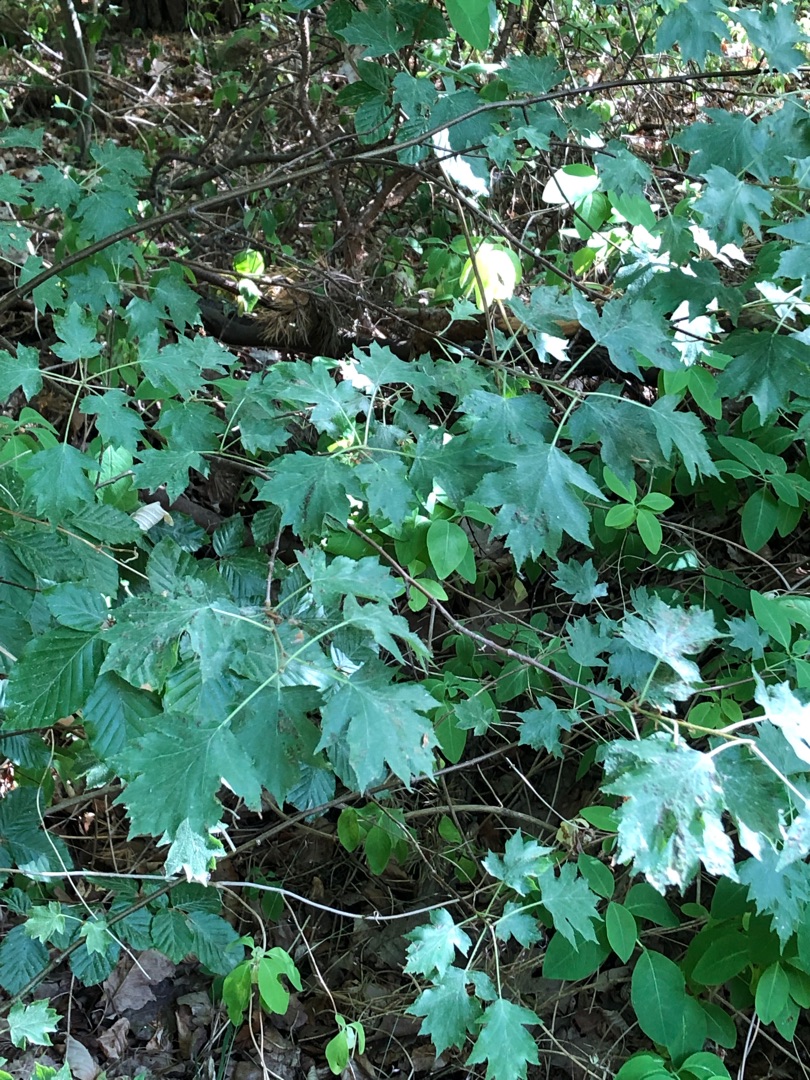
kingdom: Plantae
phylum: Tracheophyta
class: Magnoliopsida
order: Rosales
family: Rosaceae
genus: Torminalis
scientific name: Torminalis glaberrima
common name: Tarmvrid-røn
